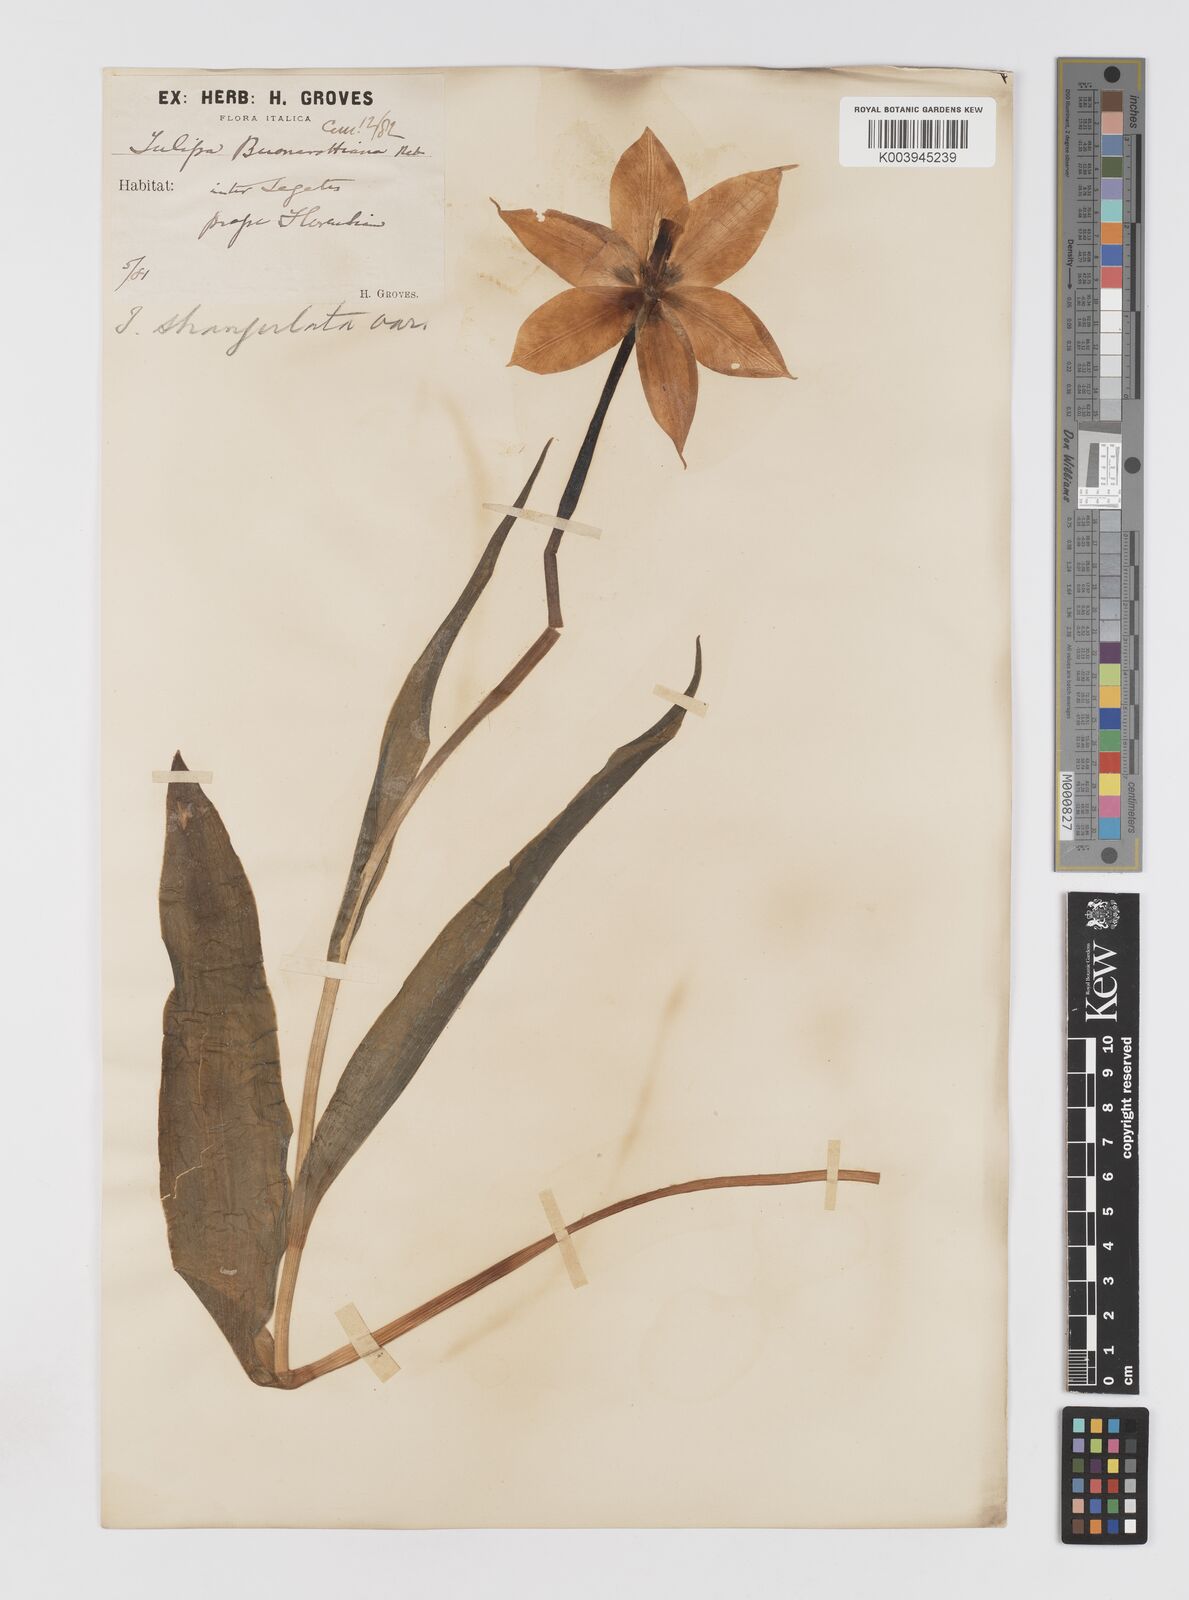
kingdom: Plantae
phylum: Tracheophyta
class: Liliopsida
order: Liliales
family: Liliaceae
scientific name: Liliaceae
